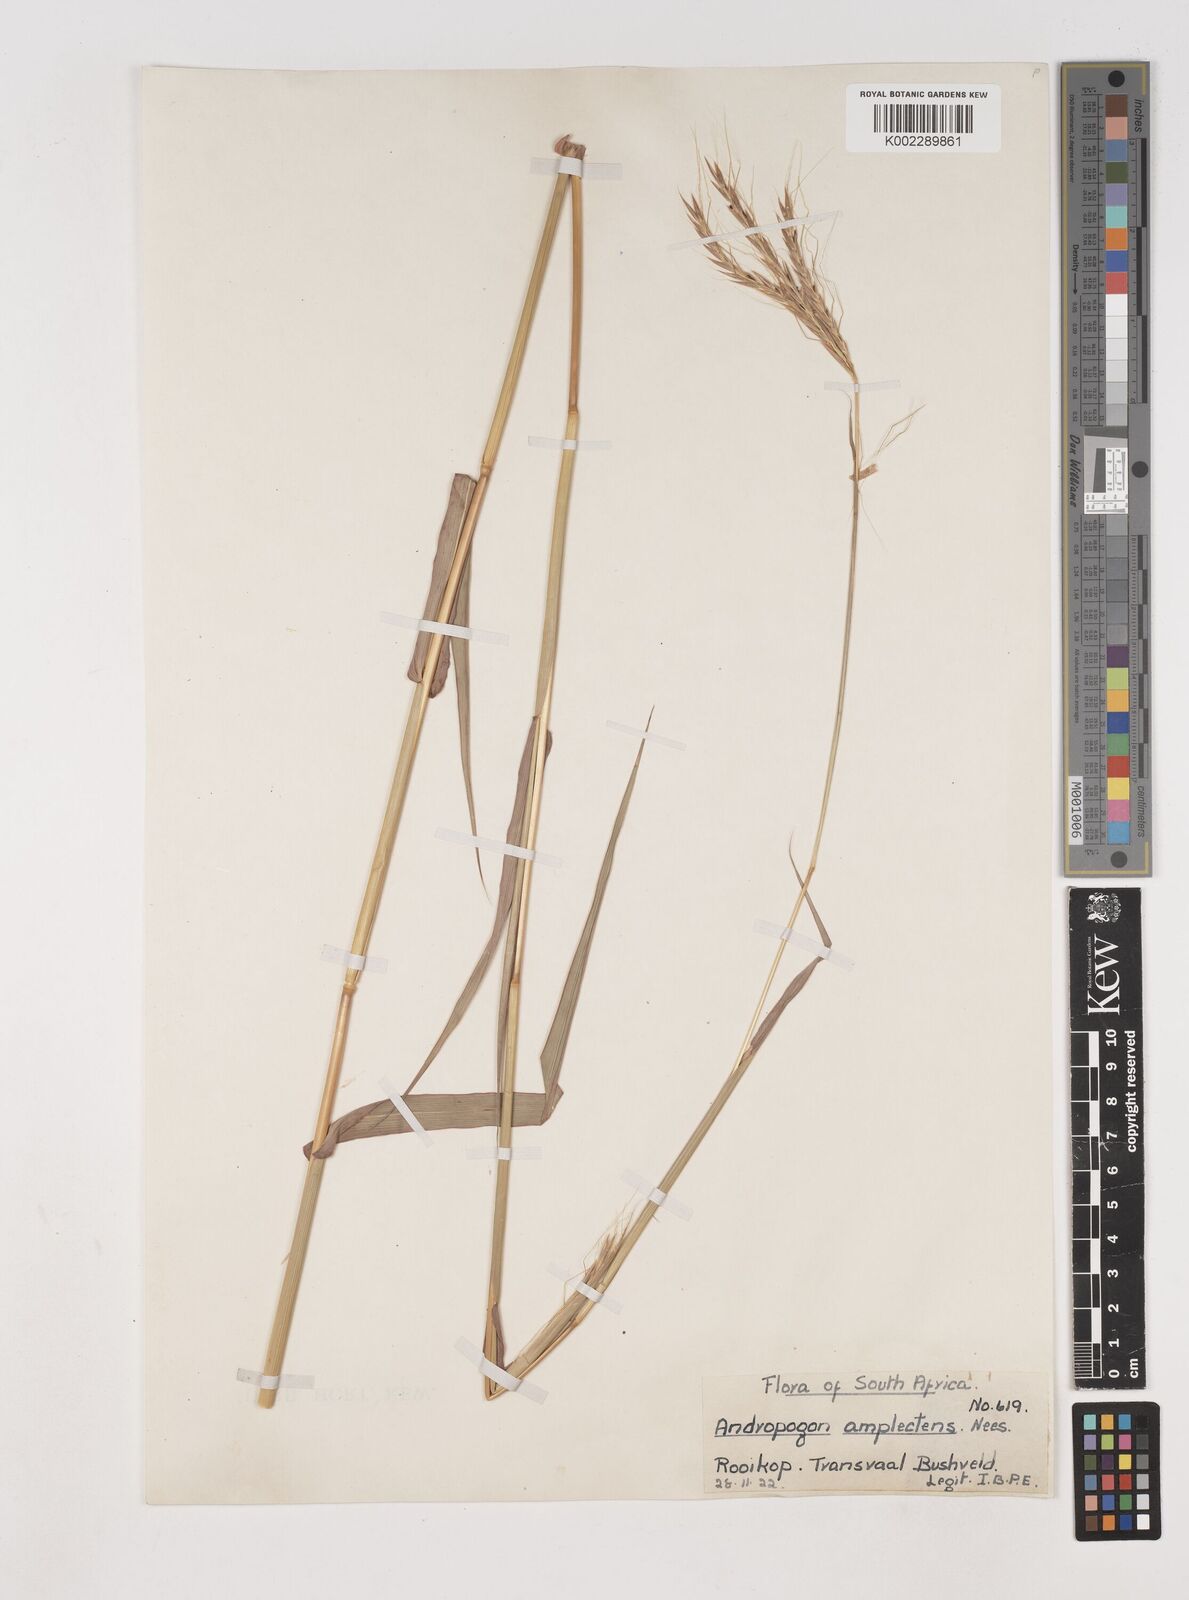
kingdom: Plantae
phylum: Tracheophyta
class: Liliopsida
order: Poales
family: Poaceae
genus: Diheteropogon
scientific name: Diheteropogon amplectens
